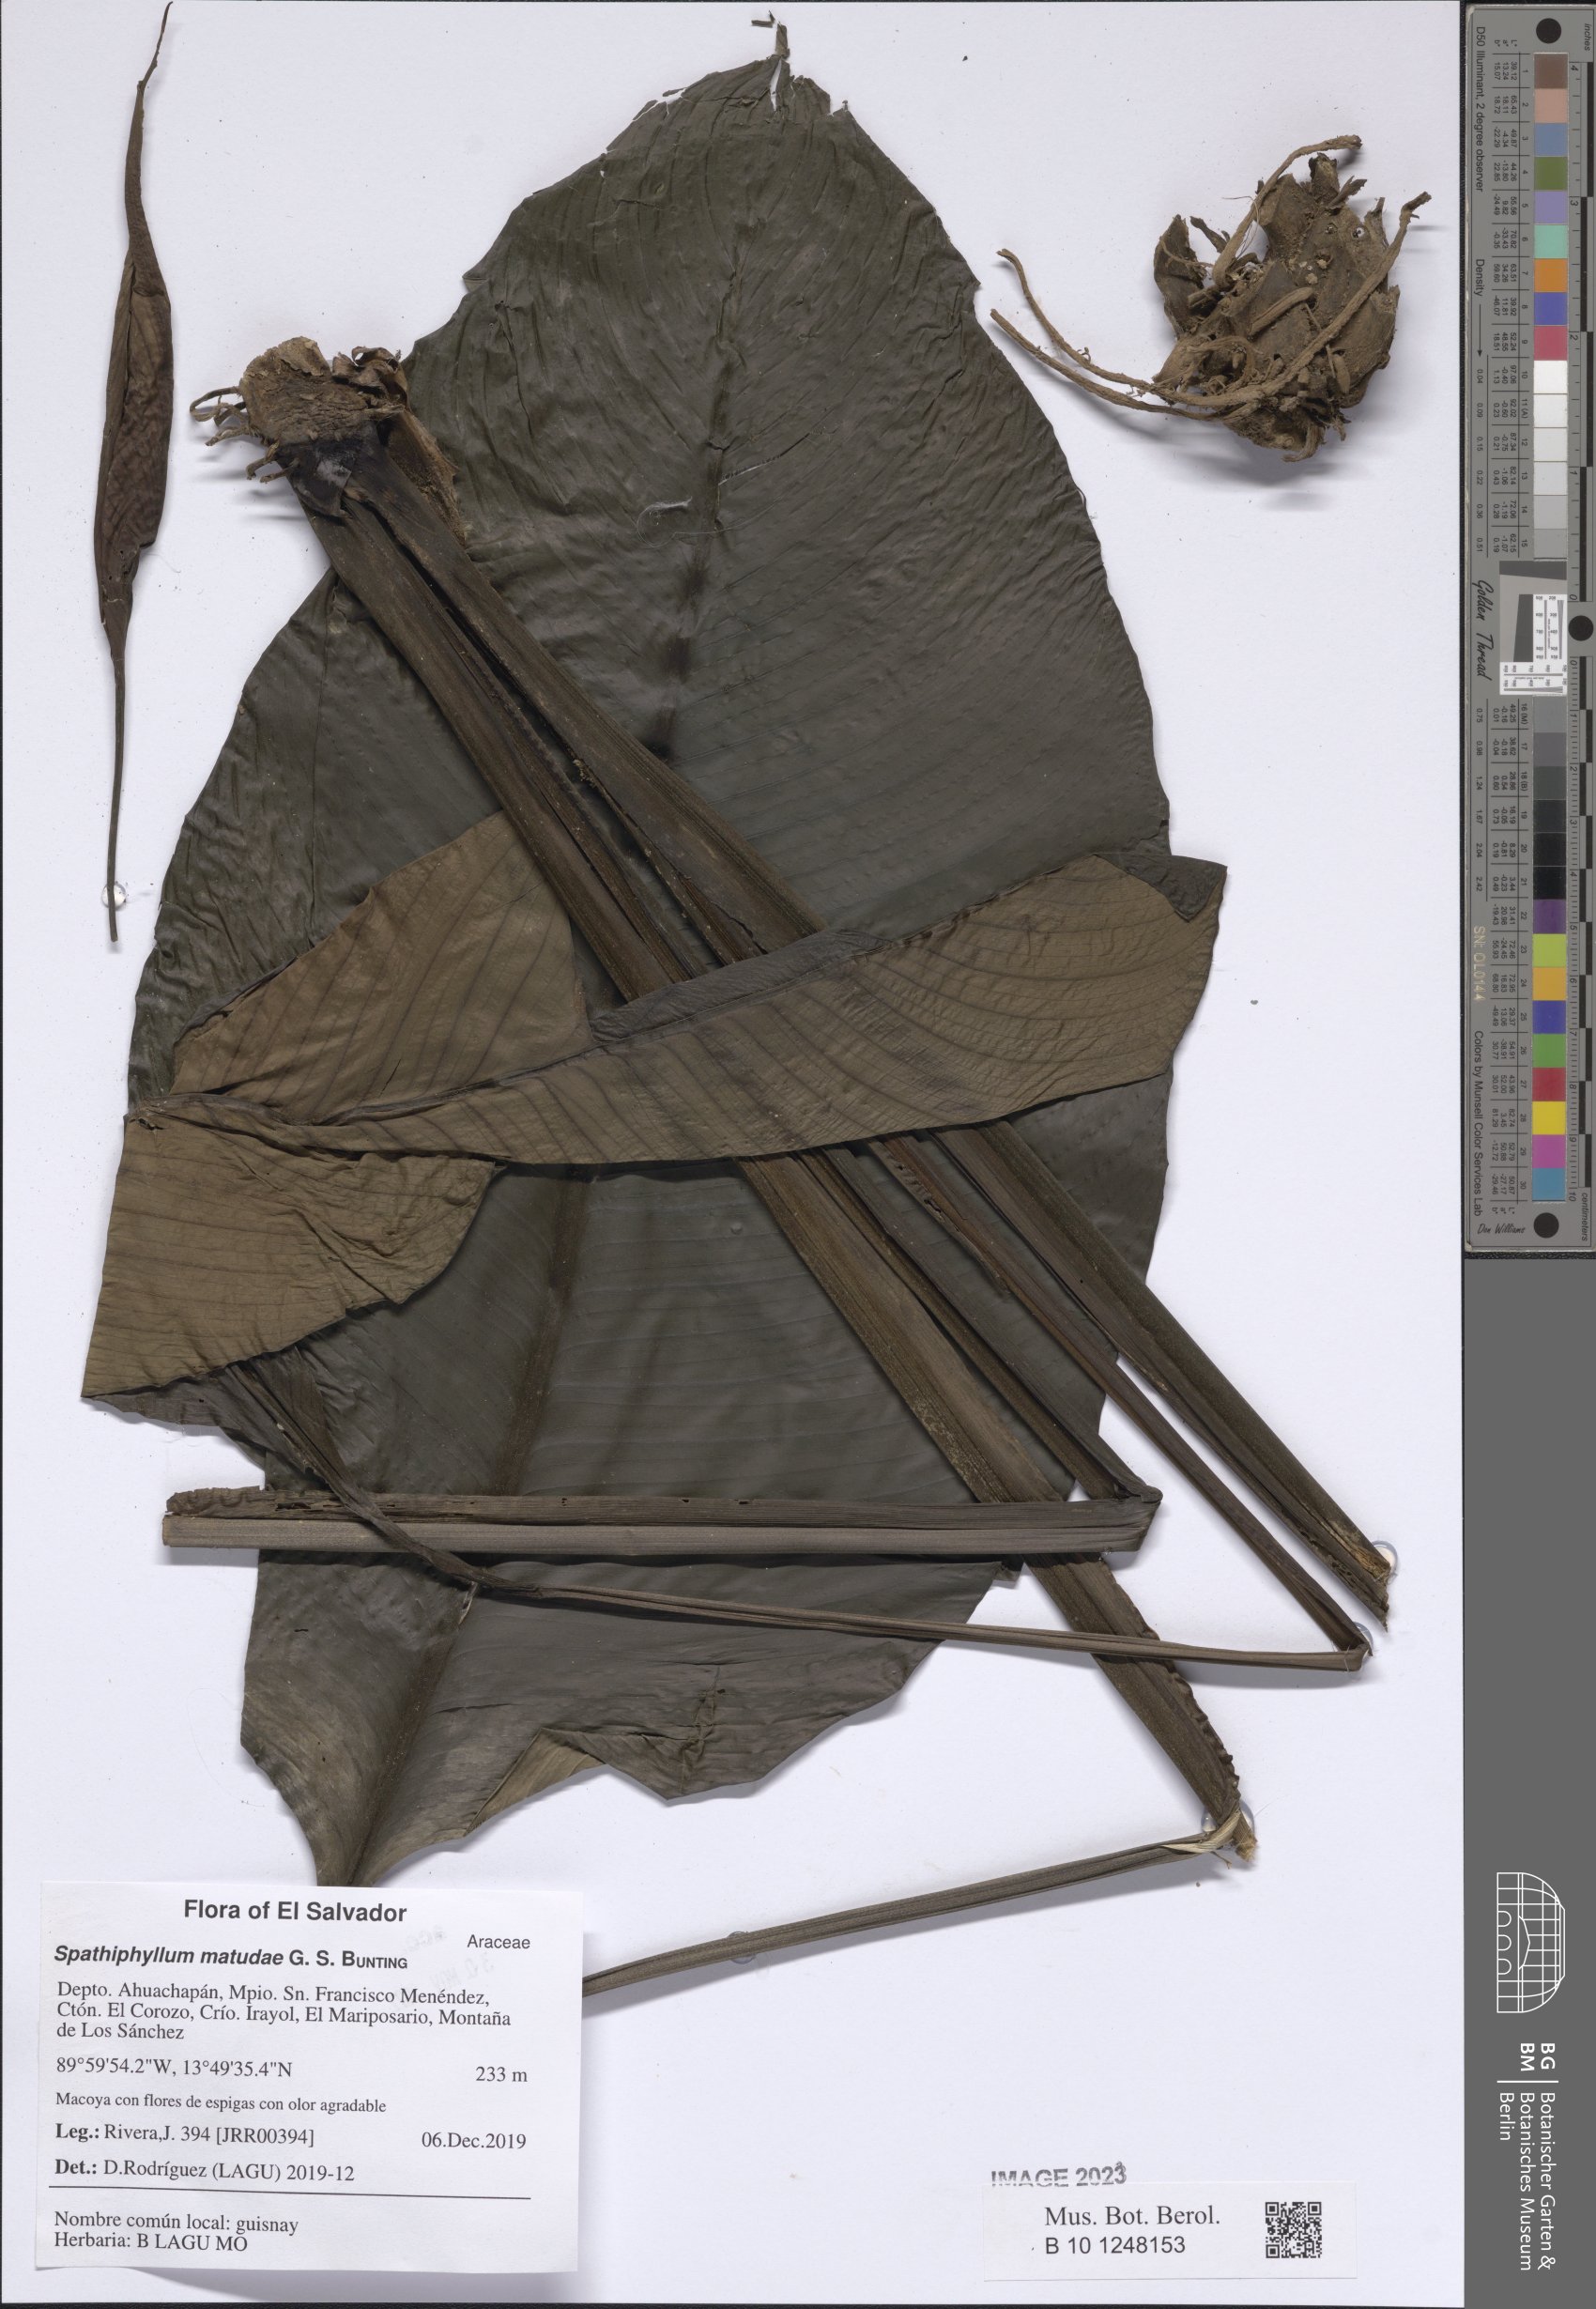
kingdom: Plantae
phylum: Tracheophyta
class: Liliopsida
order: Alismatales
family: Araceae
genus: Spathiphyllum
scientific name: Spathiphyllum matudae
